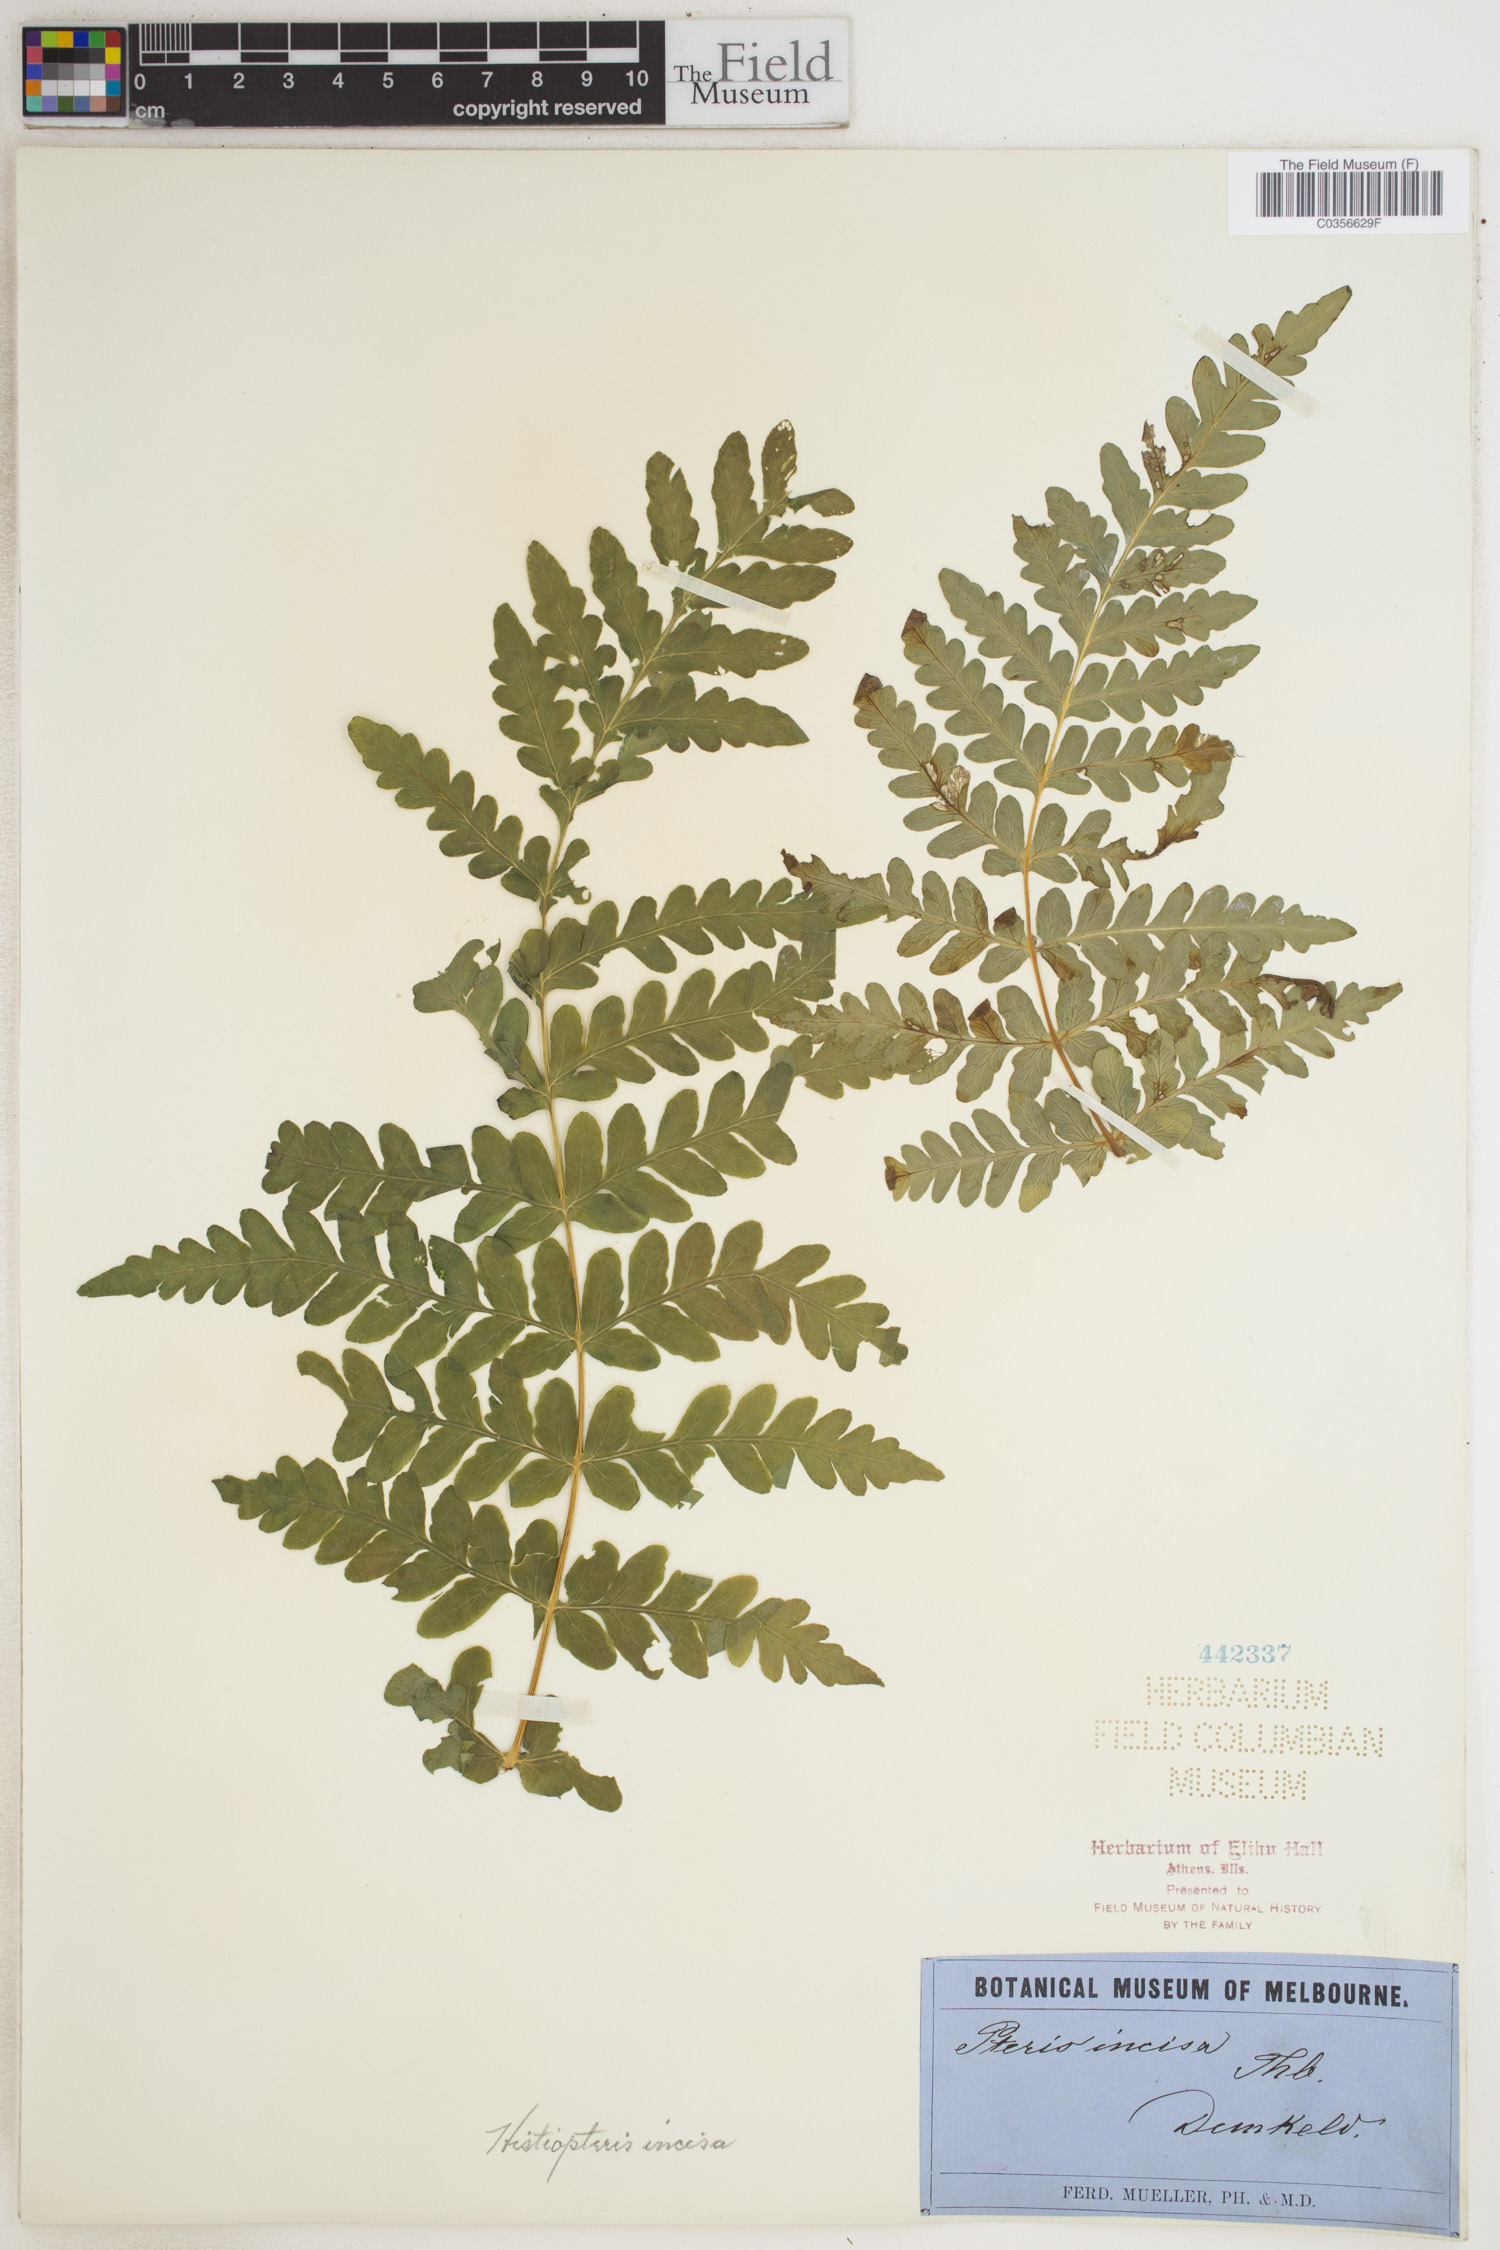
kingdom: Plantae
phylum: Tracheophyta
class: Polypodiopsida
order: Polypodiales
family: Dennstaedtiaceae
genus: Histiopteris
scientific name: Histiopteris incisa
